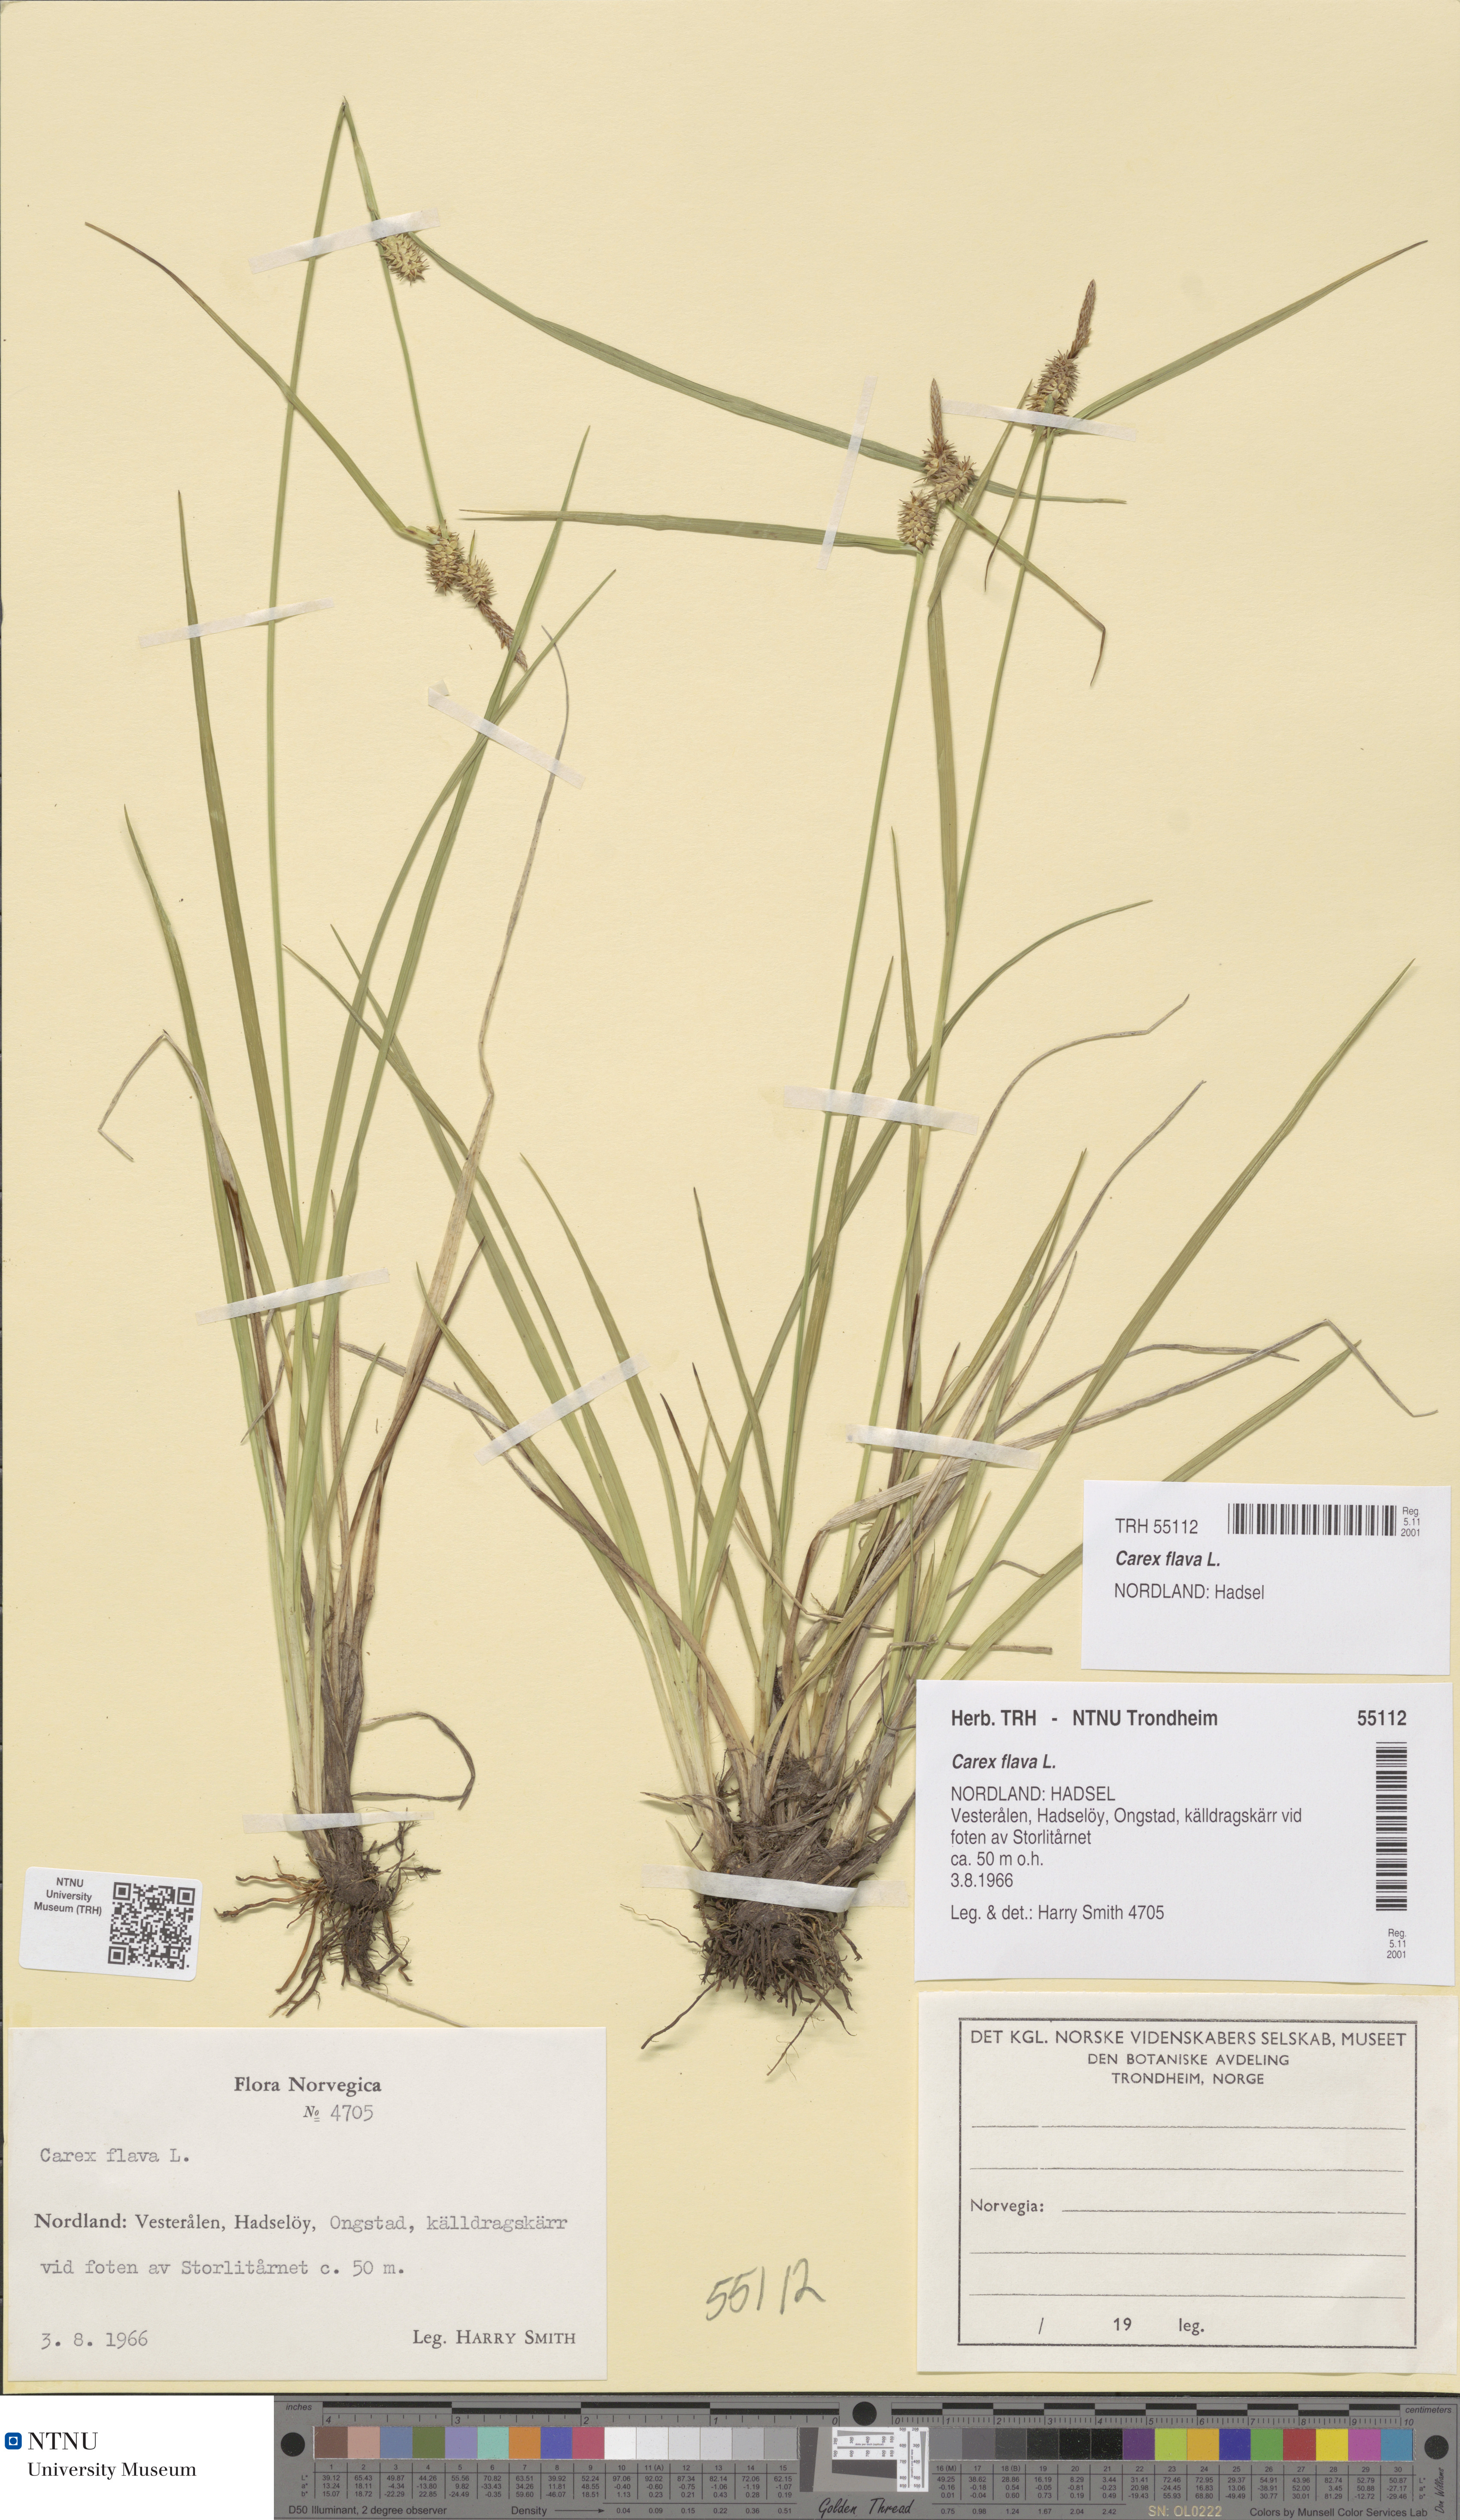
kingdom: Plantae
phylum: Tracheophyta
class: Liliopsida
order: Poales
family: Cyperaceae
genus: Carex
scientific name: Carex flava
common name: Large yellow-sedge
